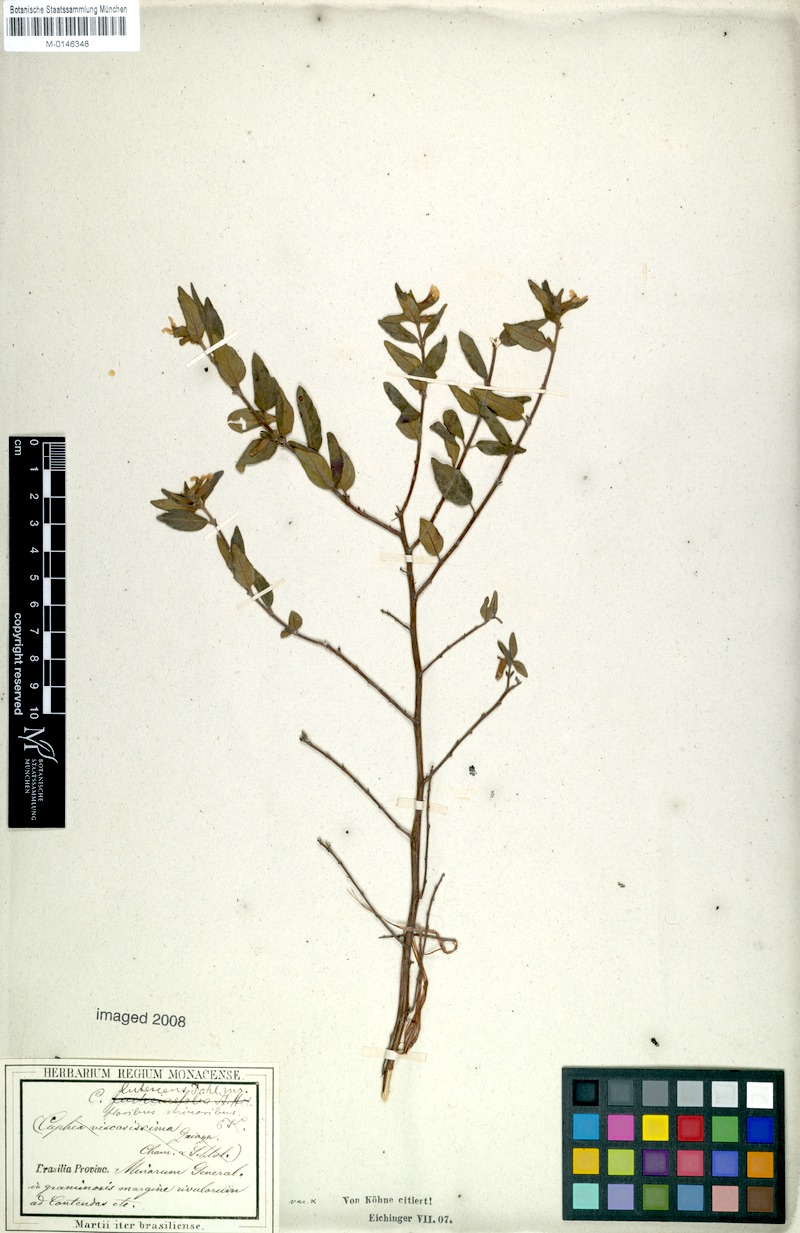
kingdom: Plantae
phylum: Tracheophyta
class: Magnoliopsida
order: Myrtales
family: Lythraceae
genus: Cuphea
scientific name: Cuphea lutescens
